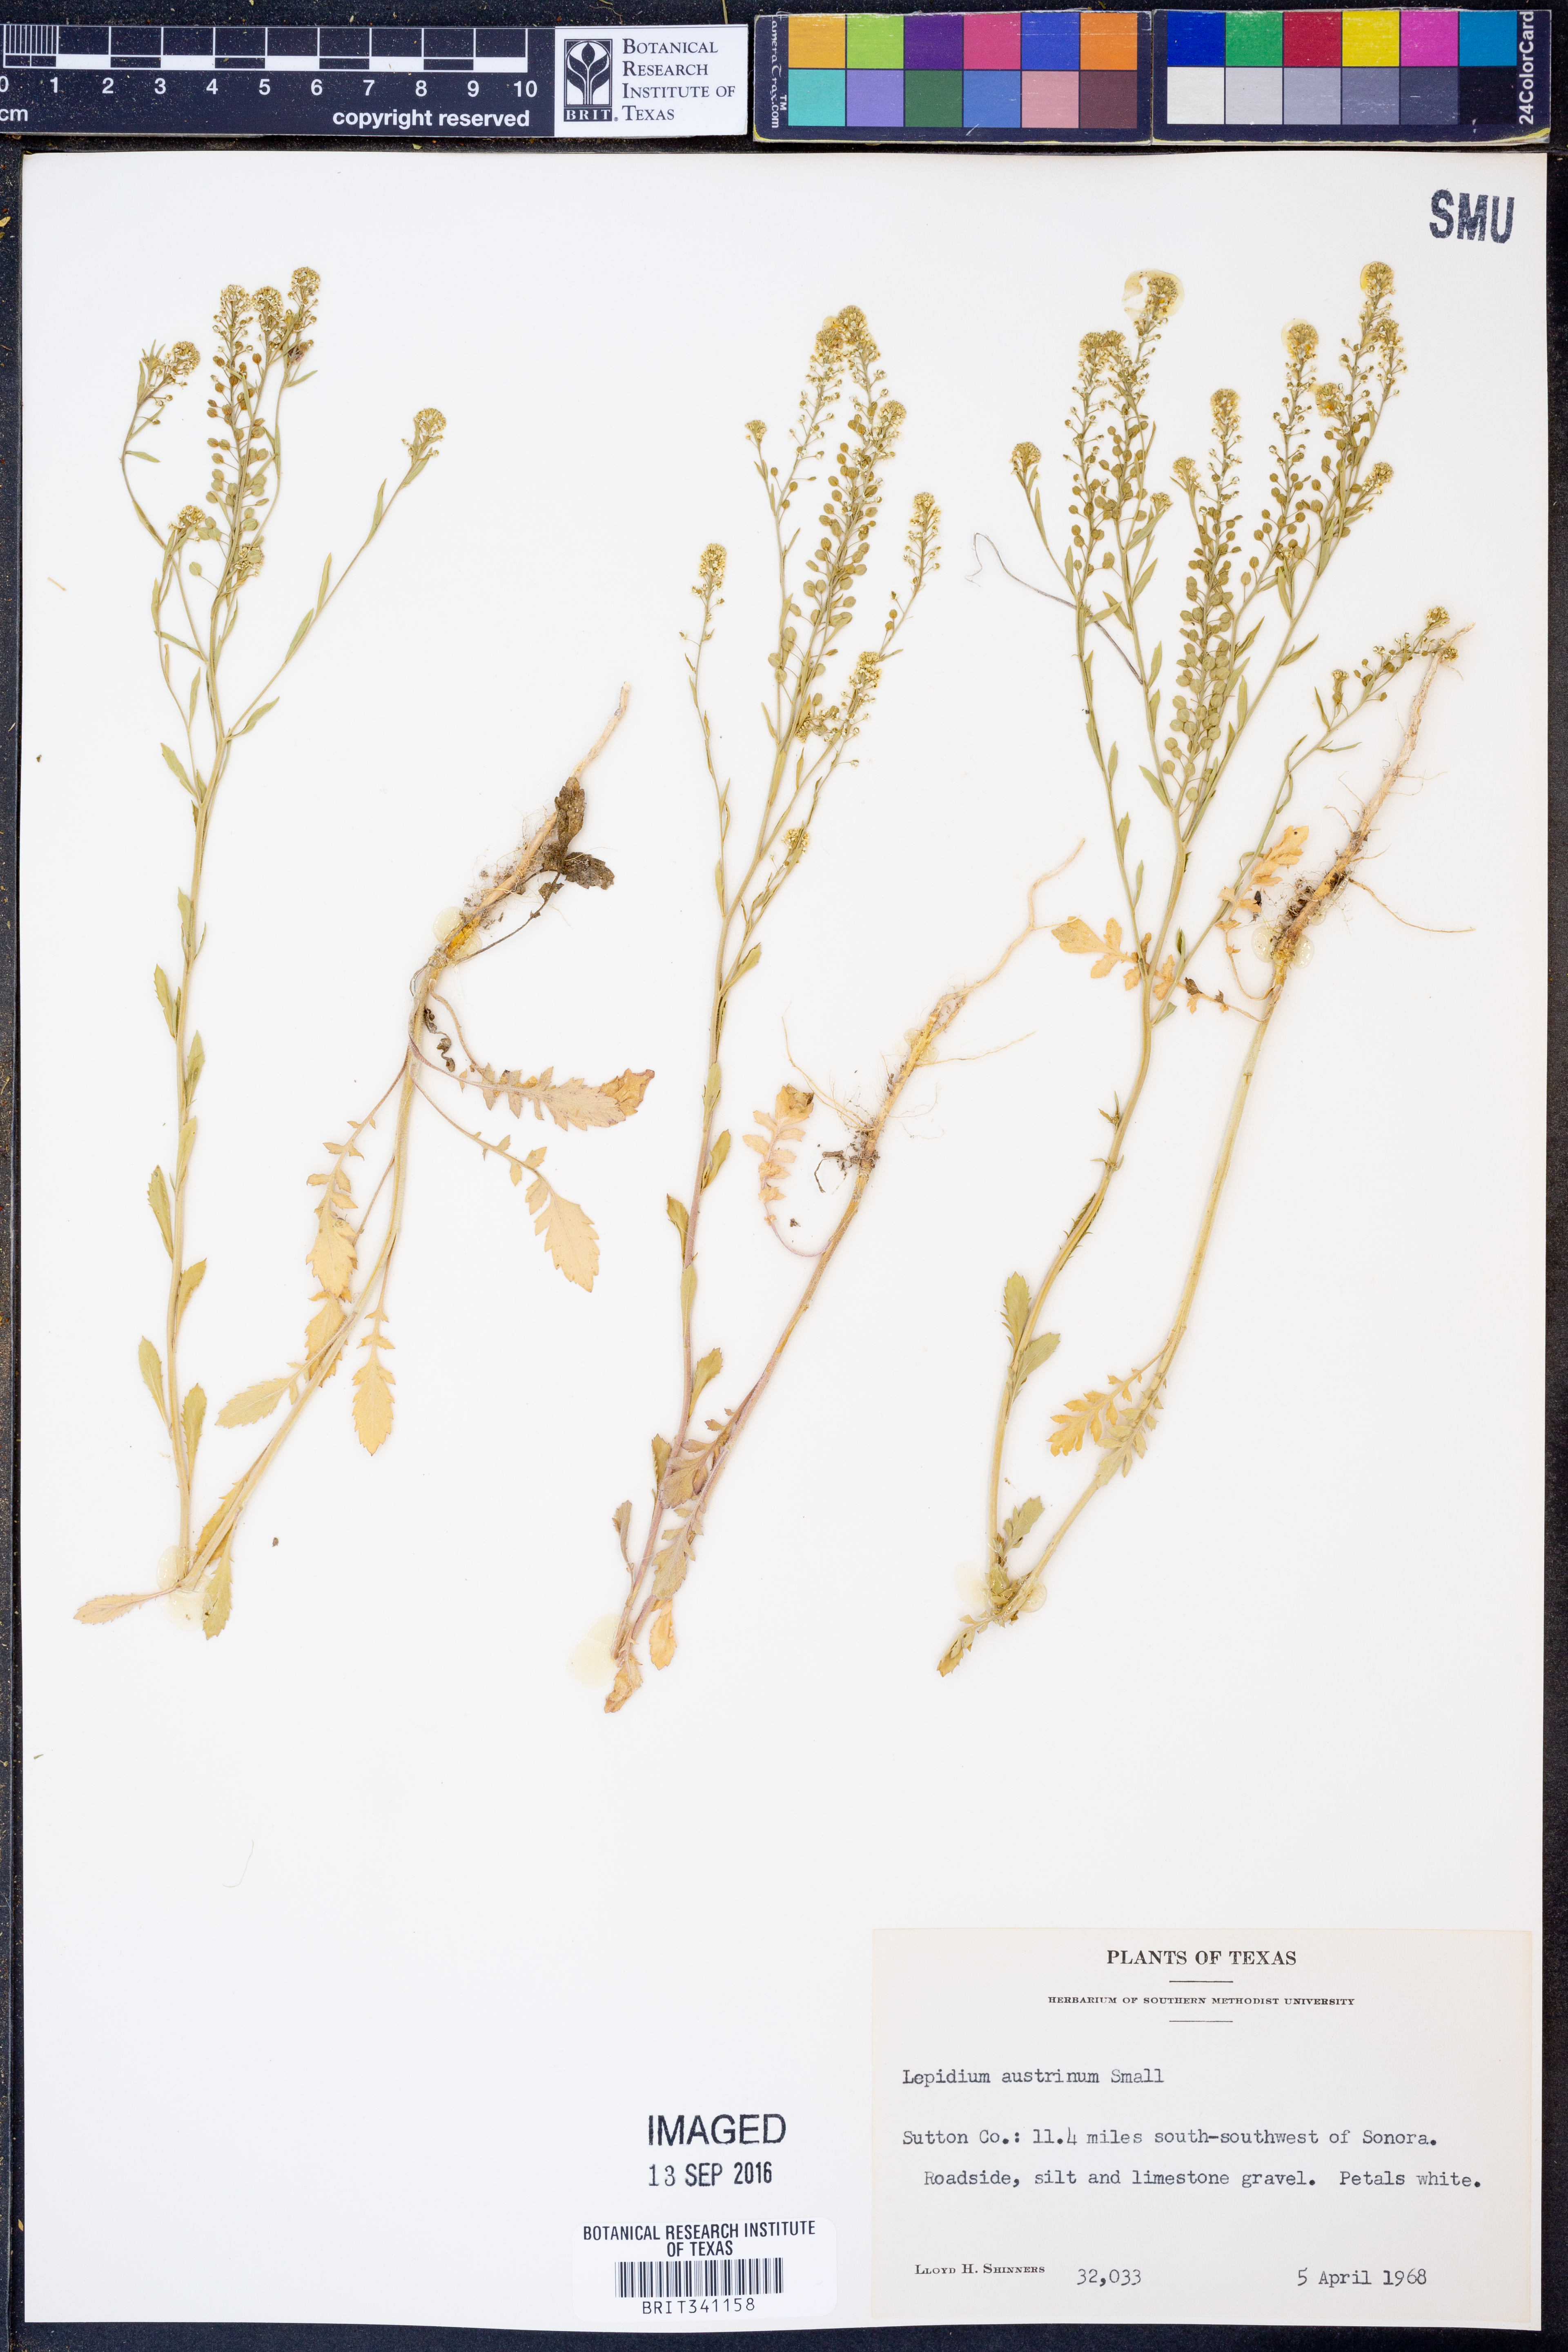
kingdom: Plantae
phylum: Tracheophyta
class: Magnoliopsida
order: Brassicales
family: Brassicaceae
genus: Lepidium
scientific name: Lepidium austrinum
